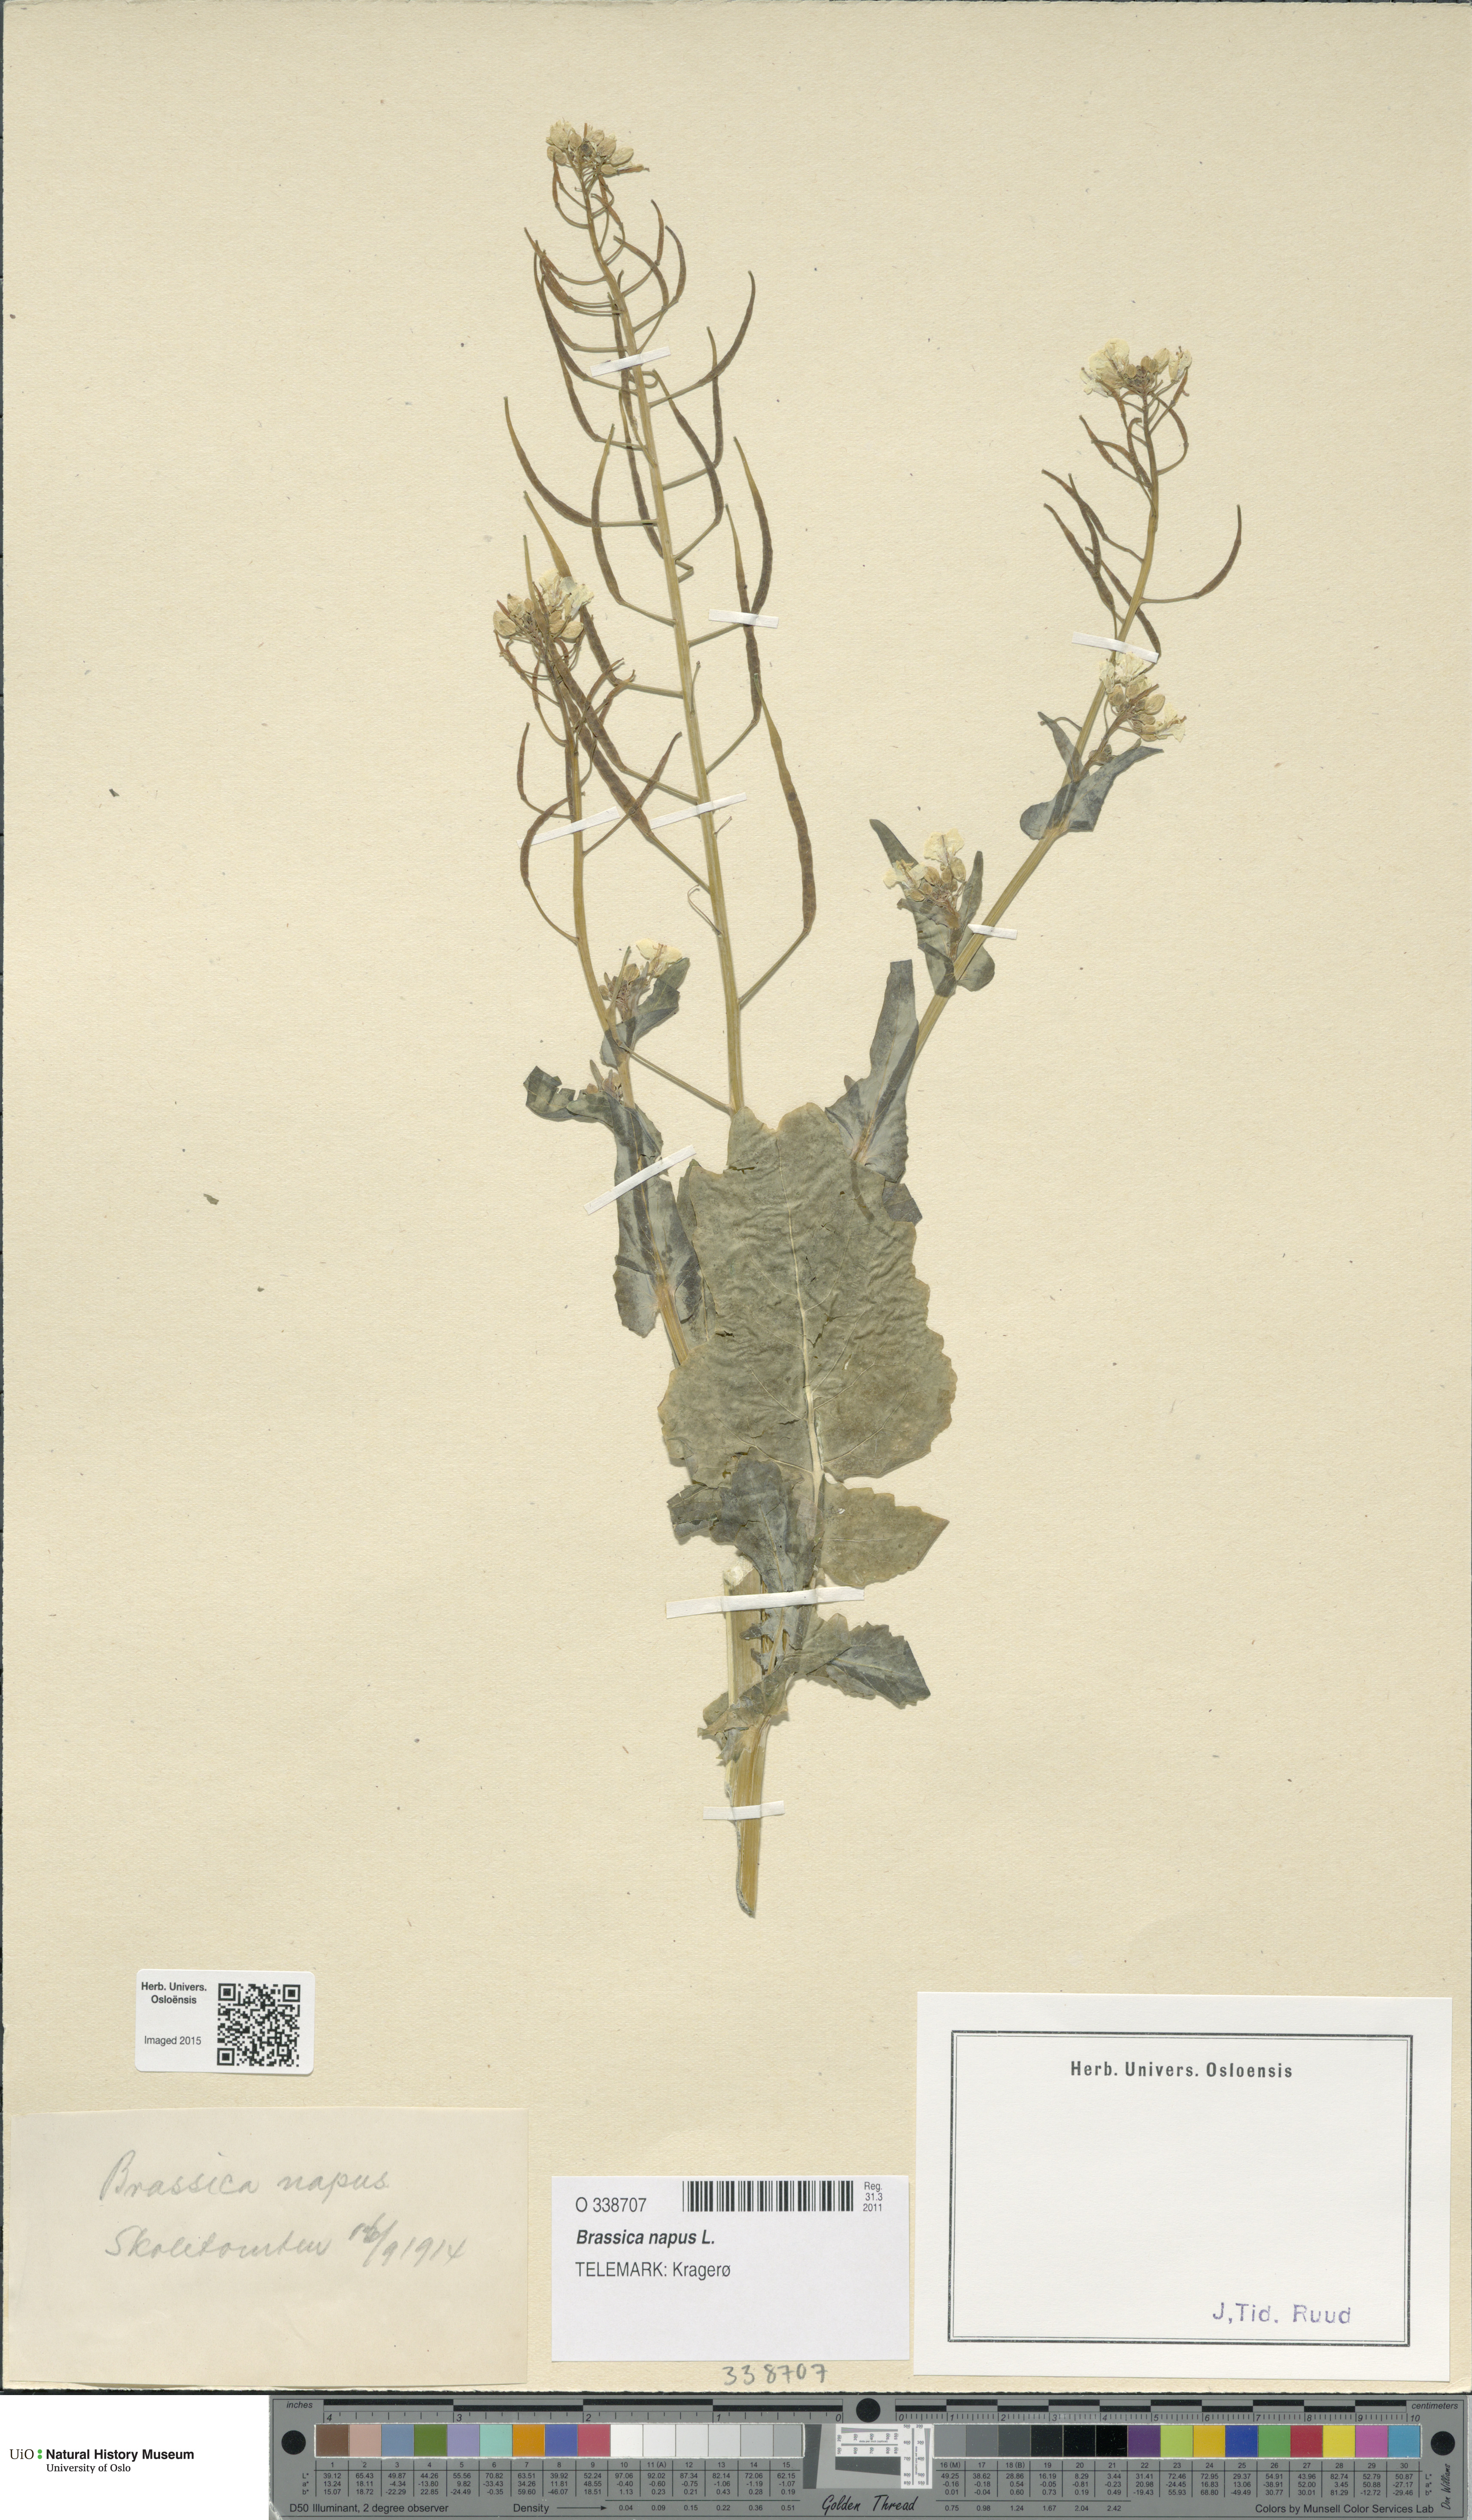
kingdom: Plantae
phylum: Tracheophyta
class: Magnoliopsida
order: Brassicales
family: Brassicaceae
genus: Brassica
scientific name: Brassica napus
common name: Rape
